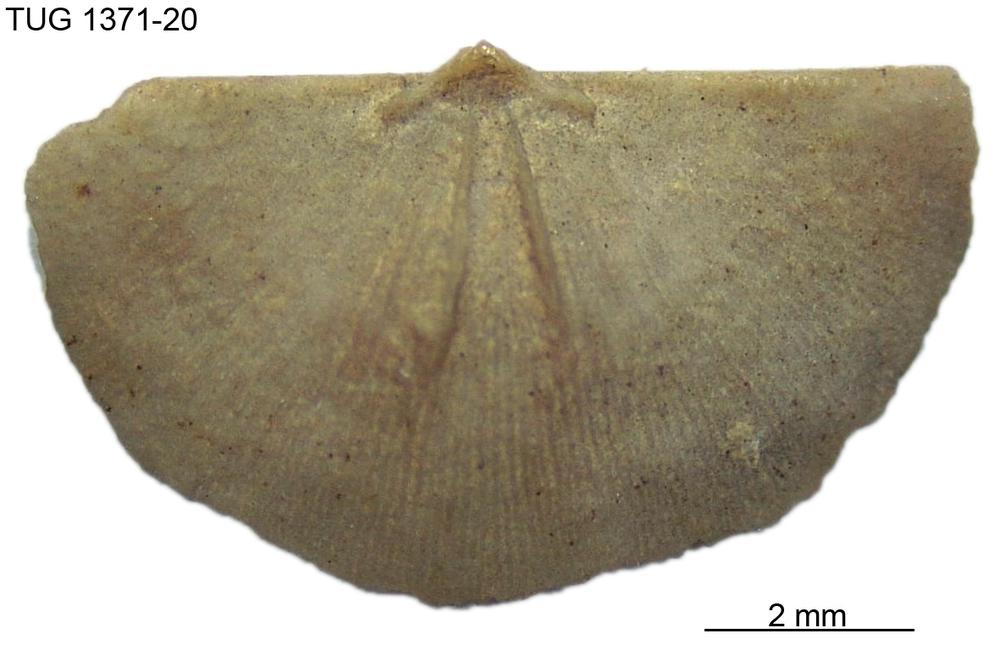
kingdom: Animalia
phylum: Brachiopoda
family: Sowerbyellidae
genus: Eochonetes
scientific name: Eochonetes
